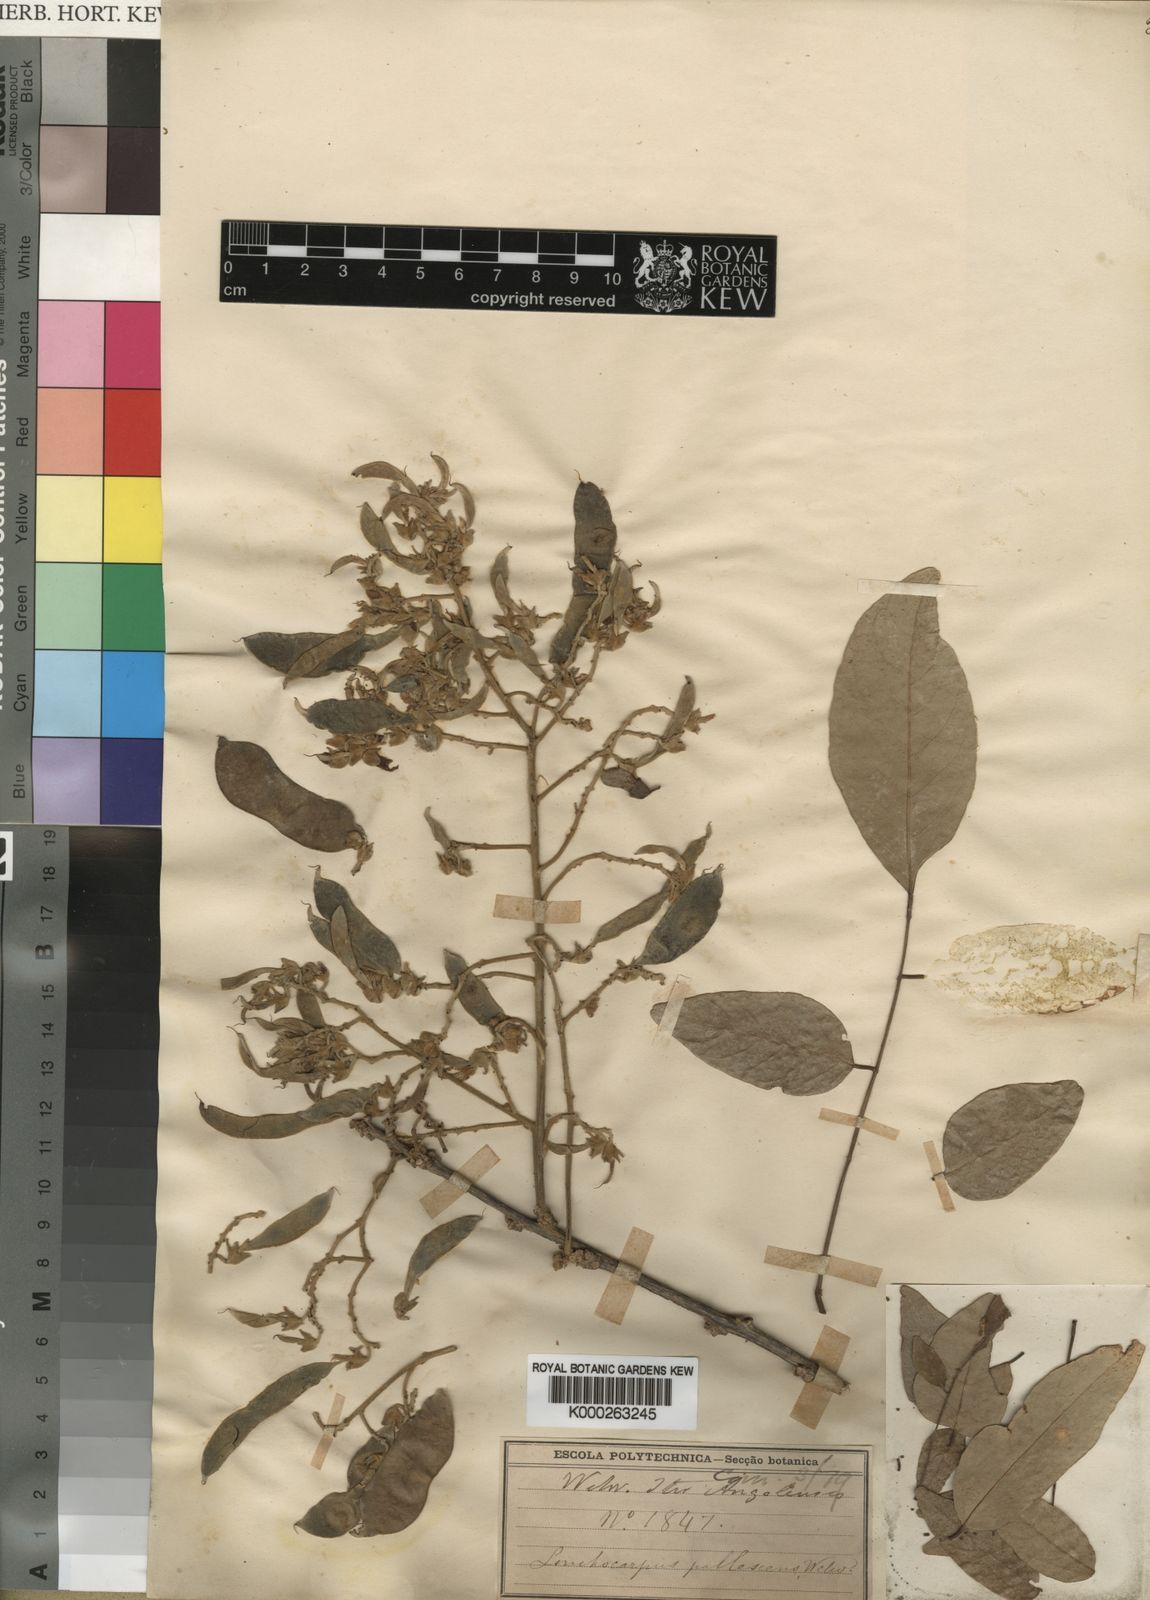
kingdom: Plantae
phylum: Tracheophyta
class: Magnoliopsida
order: Fabales
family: Fabaceae
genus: Philenoptera
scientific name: Philenoptera pallescens
